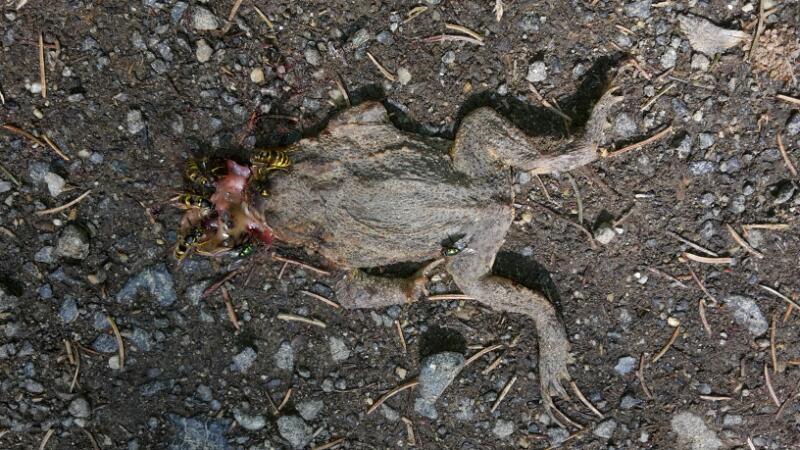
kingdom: Animalia
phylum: Chordata
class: Amphibia
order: Anura
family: Bufonidae
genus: Bufo
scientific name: Bufo bufo
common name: Common toad
